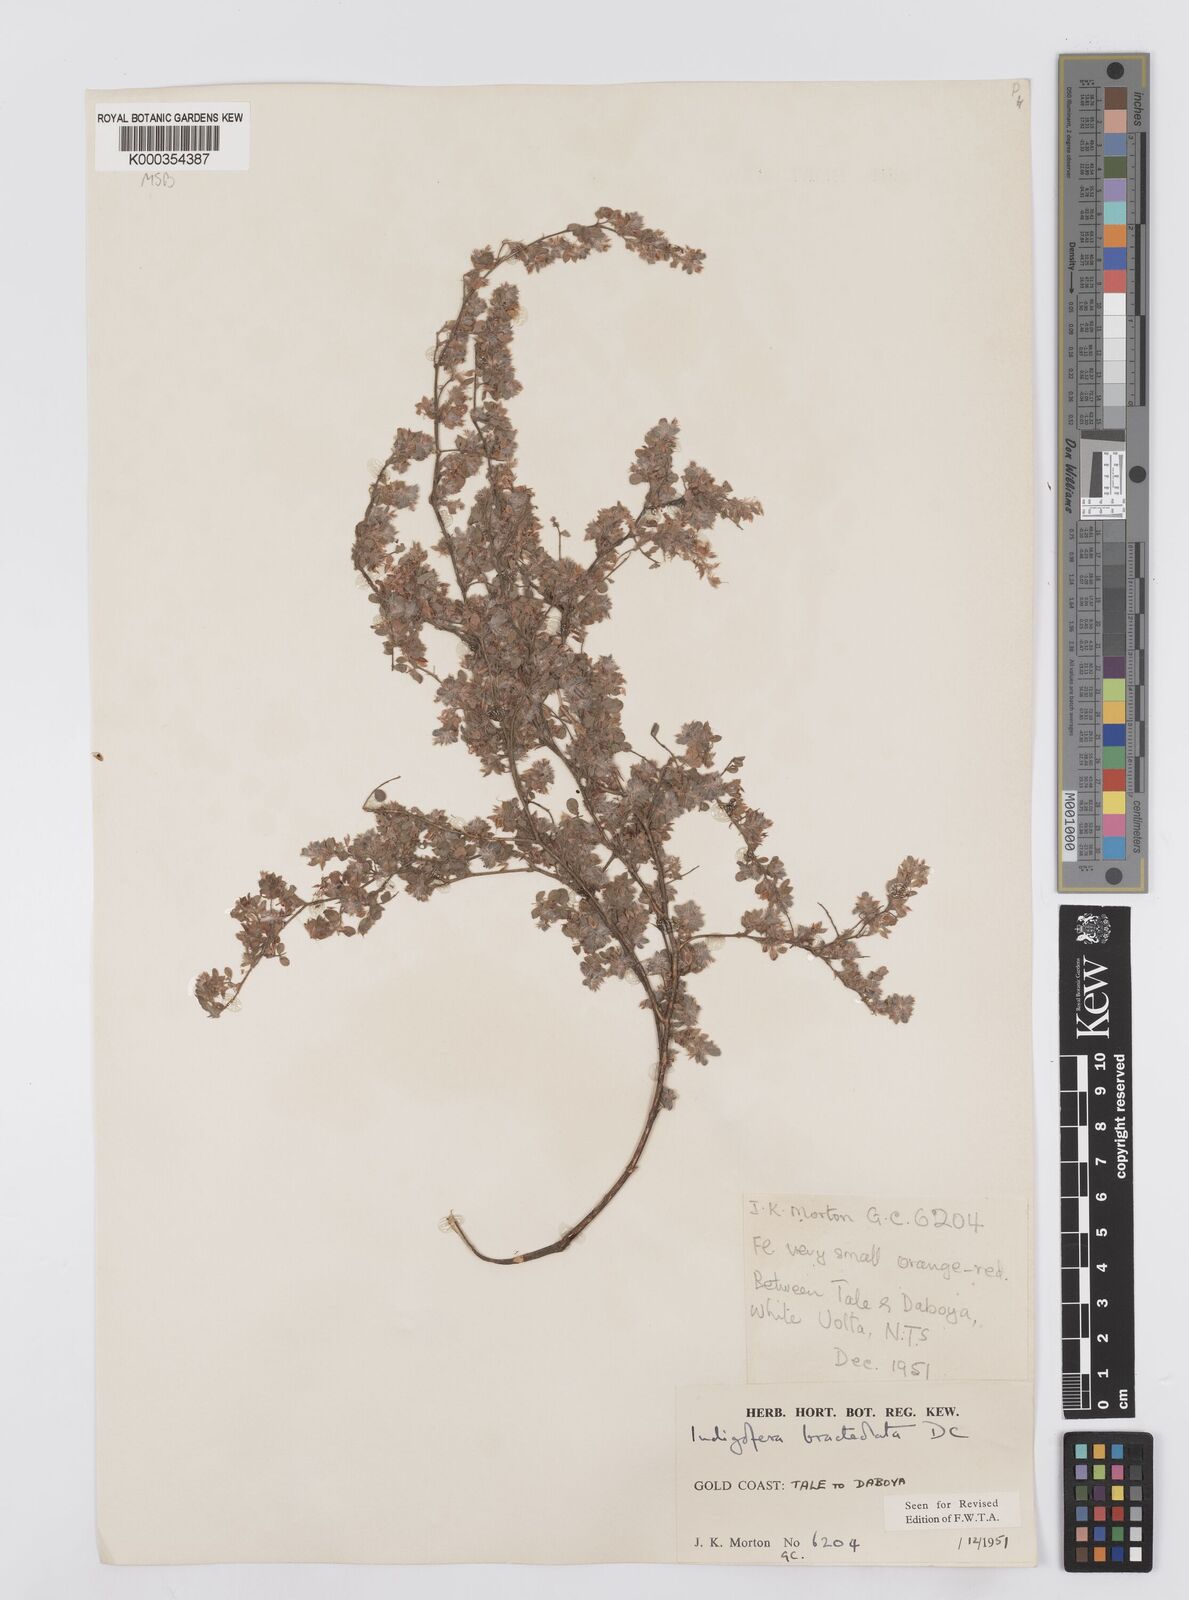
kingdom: Plantae
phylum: Tracheophyta
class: Magnoliopsida
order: Fabales
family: Fabaceae
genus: Indigofera
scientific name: Indigofera bracteolata
